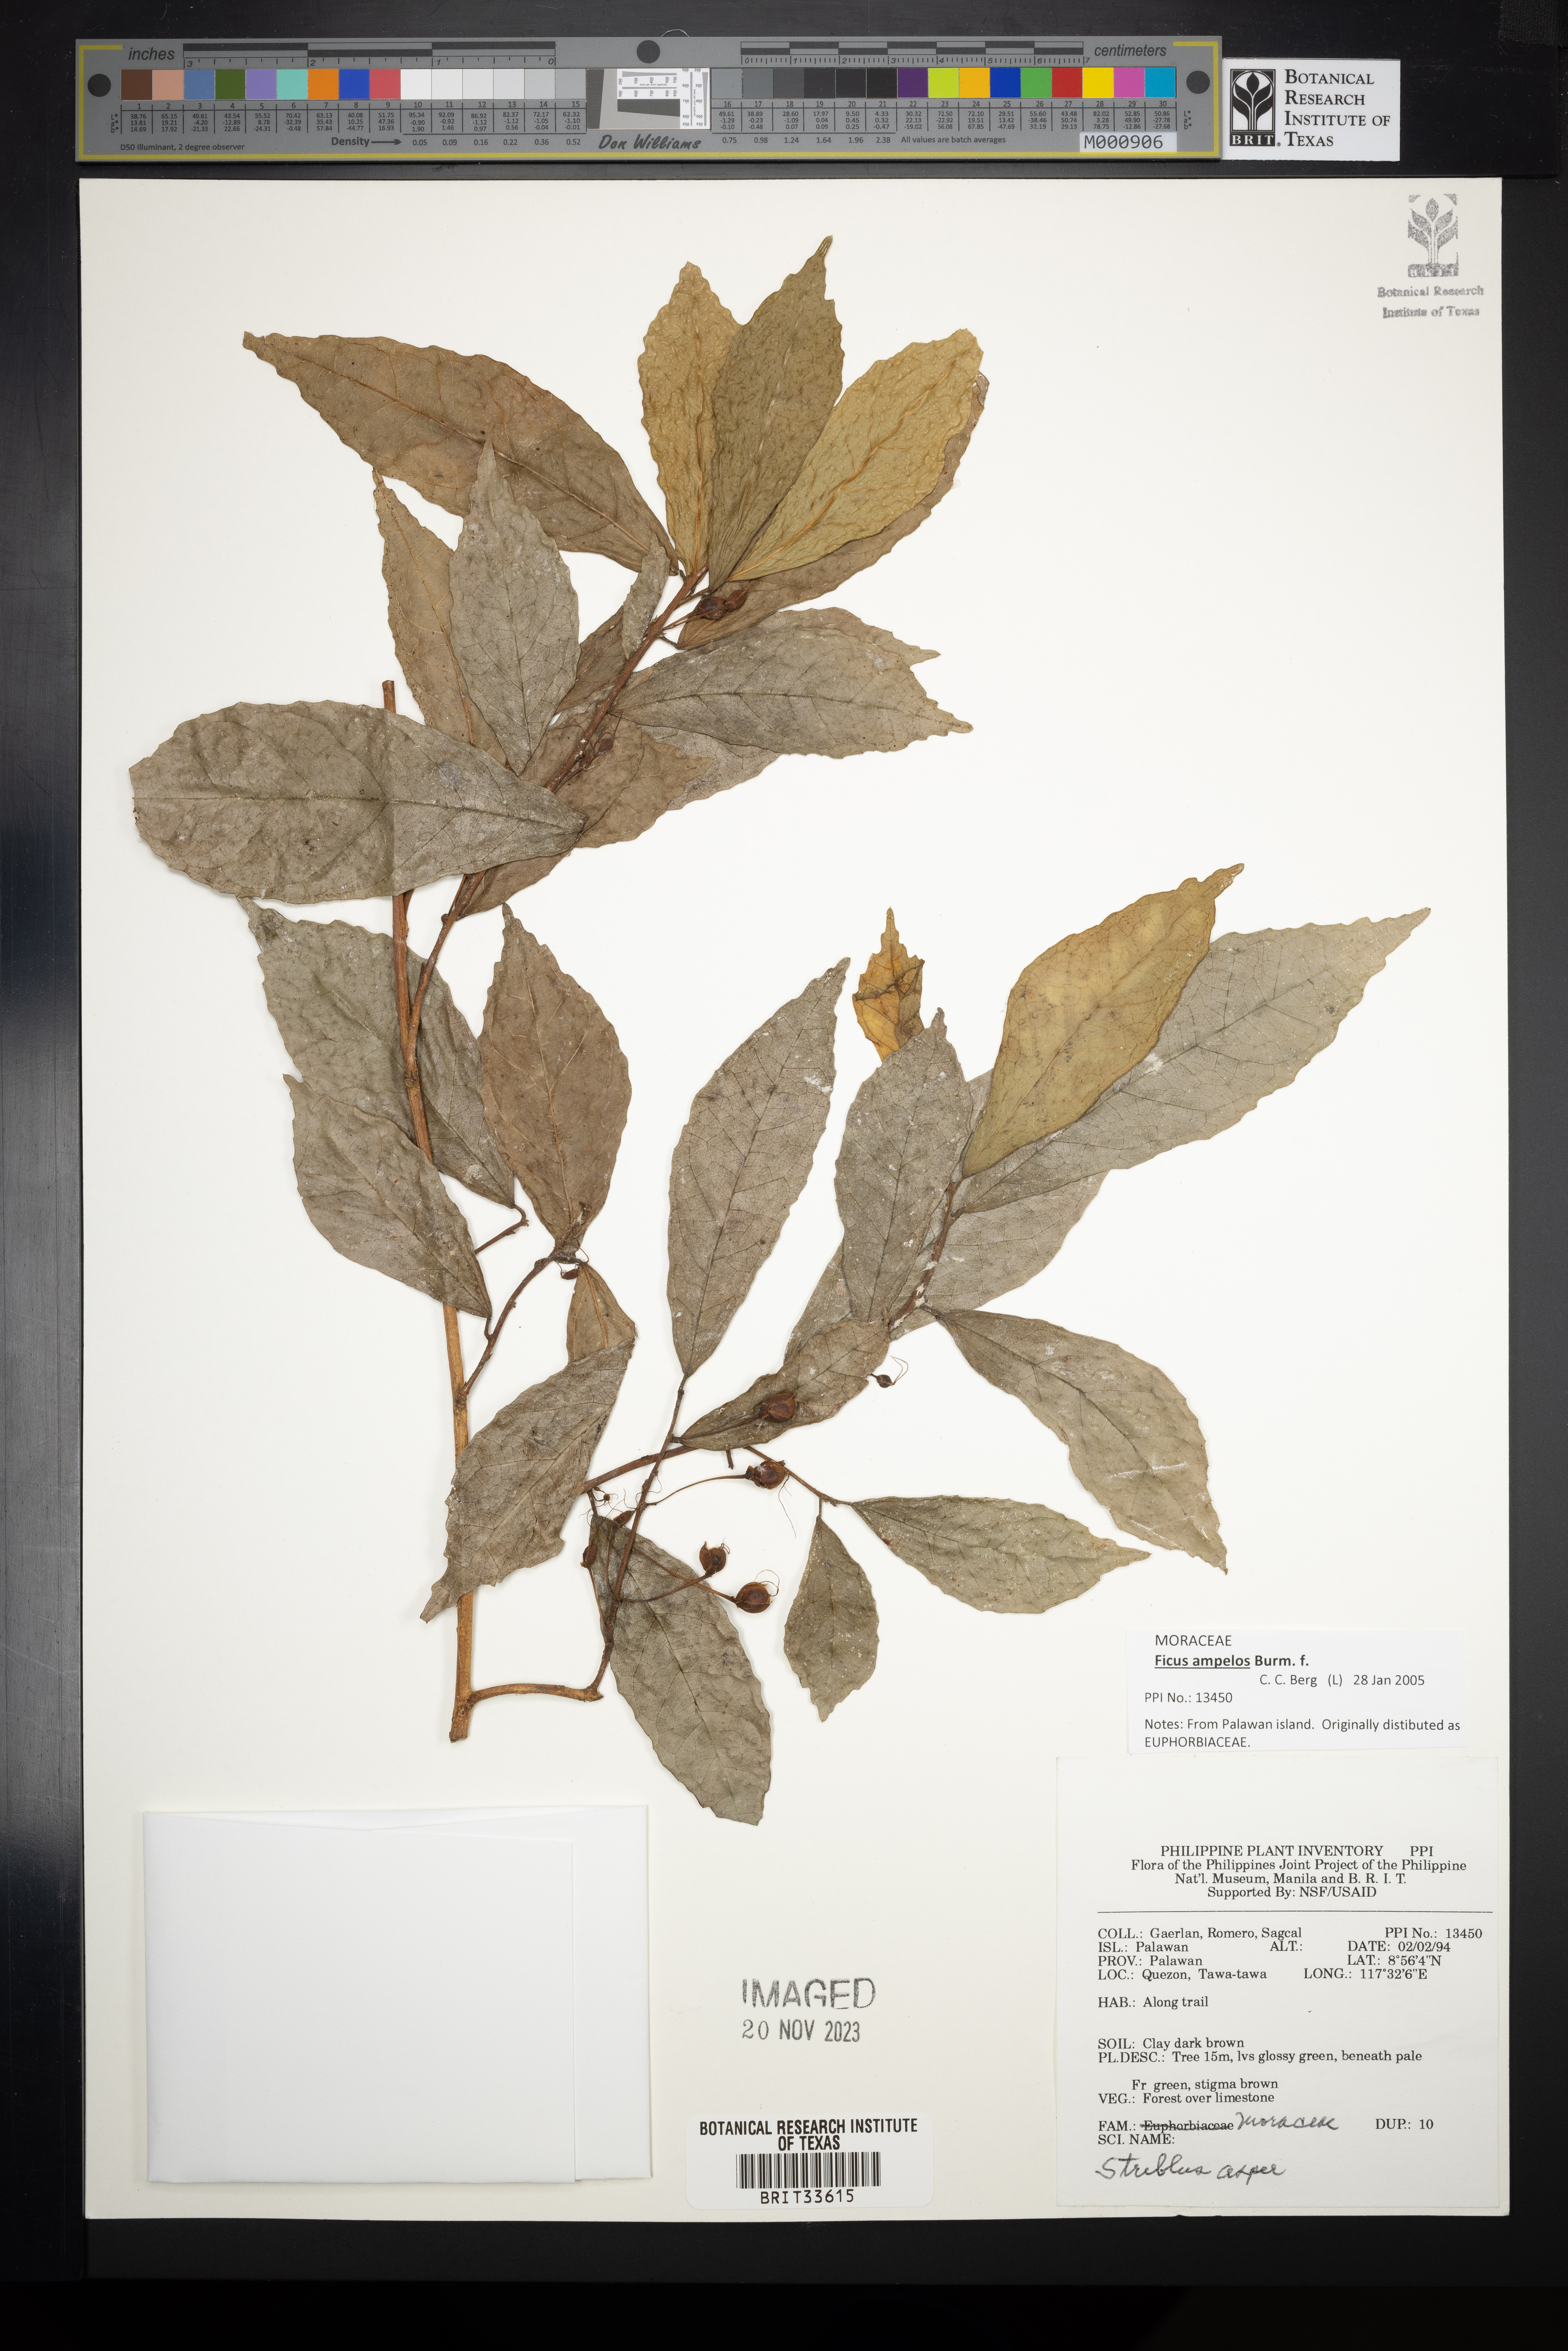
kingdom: Plantae
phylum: Tracheophyta
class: Magnoliopsida
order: Rosales
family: Moraceae
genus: Streblus
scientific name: Streblus asper
